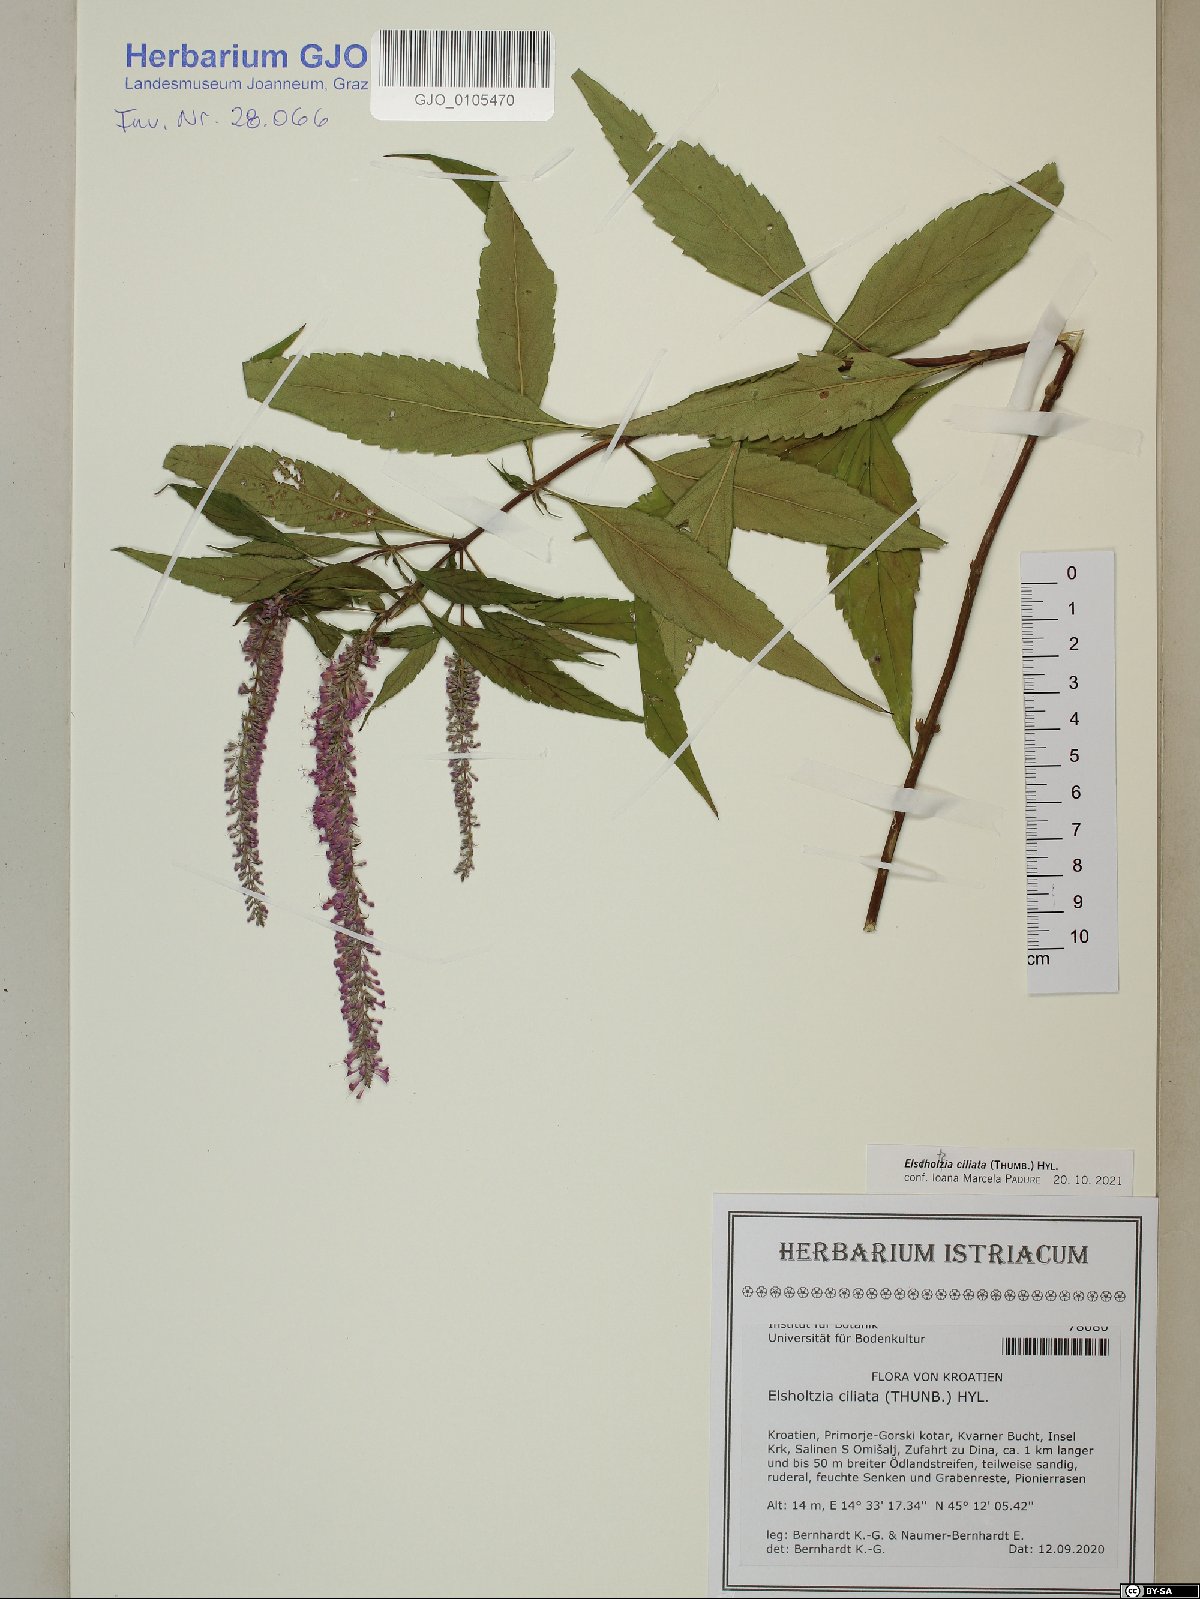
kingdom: Plantae
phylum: Tracheophyta
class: Magnoliopsida
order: Lamiales
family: Lamiaceae
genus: Elsholtzia
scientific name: Elsholtzia ciliata
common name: Ciliate elsholtzia
